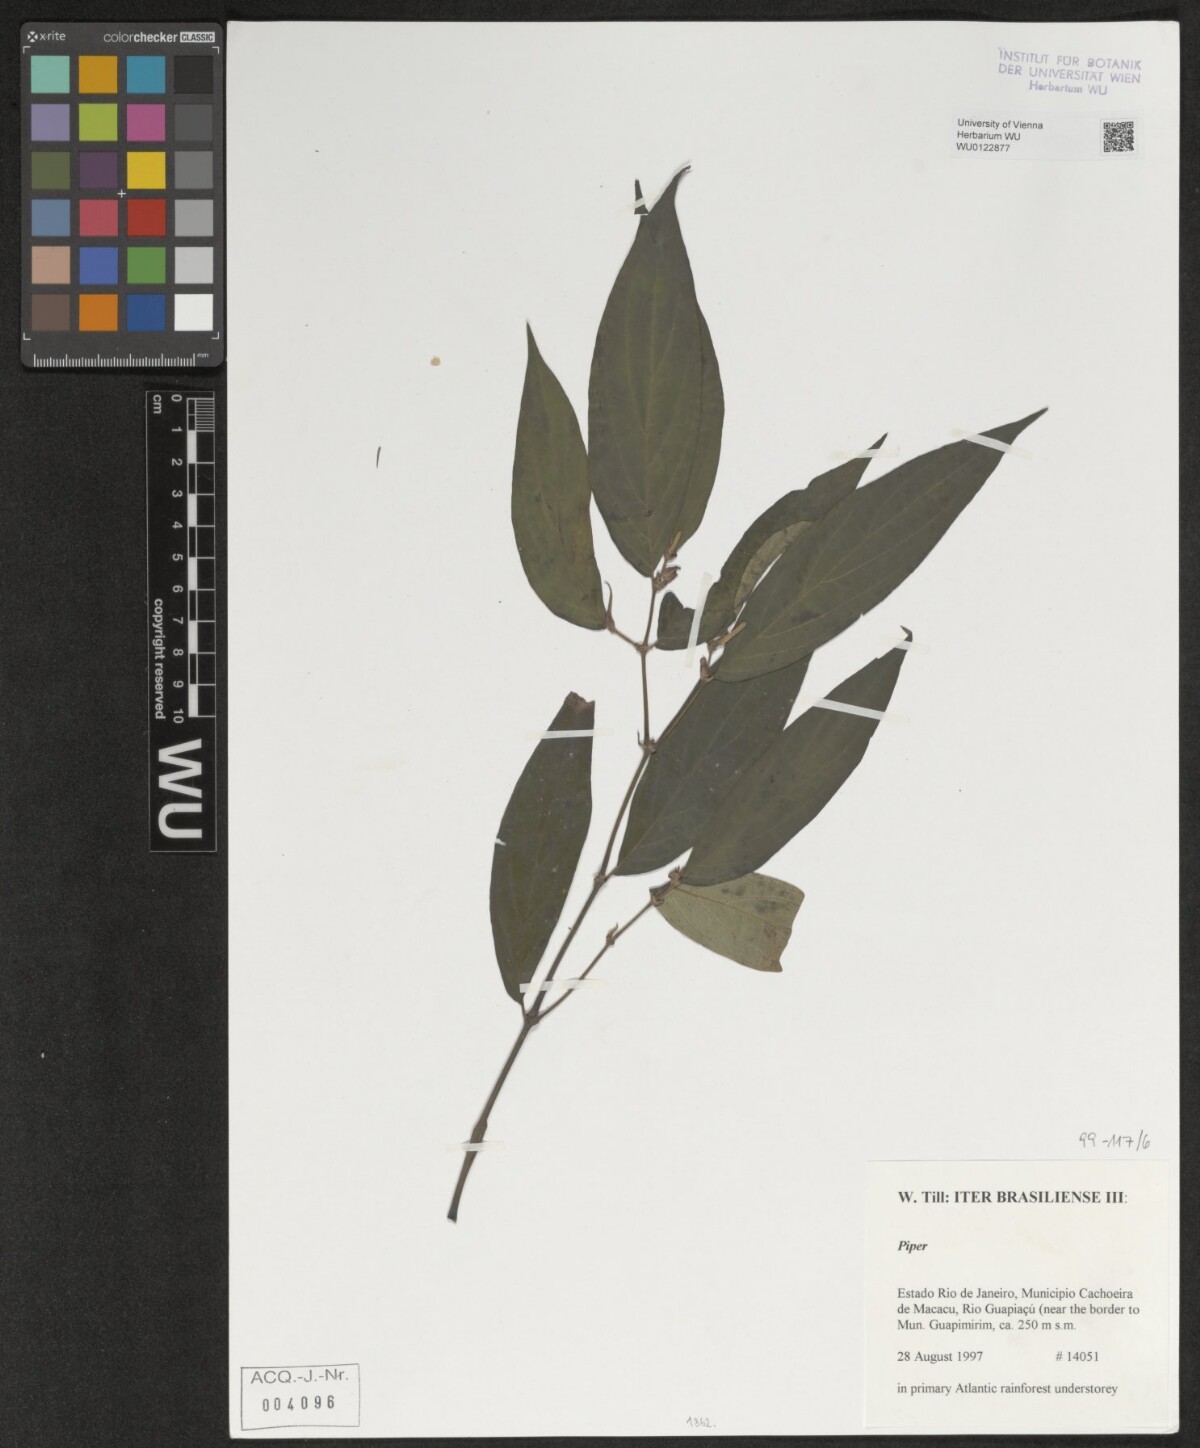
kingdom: Plantae
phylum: Tracheophyta
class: Magnoliopsida
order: Piperales
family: Piperaceae
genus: Piper
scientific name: Piper
